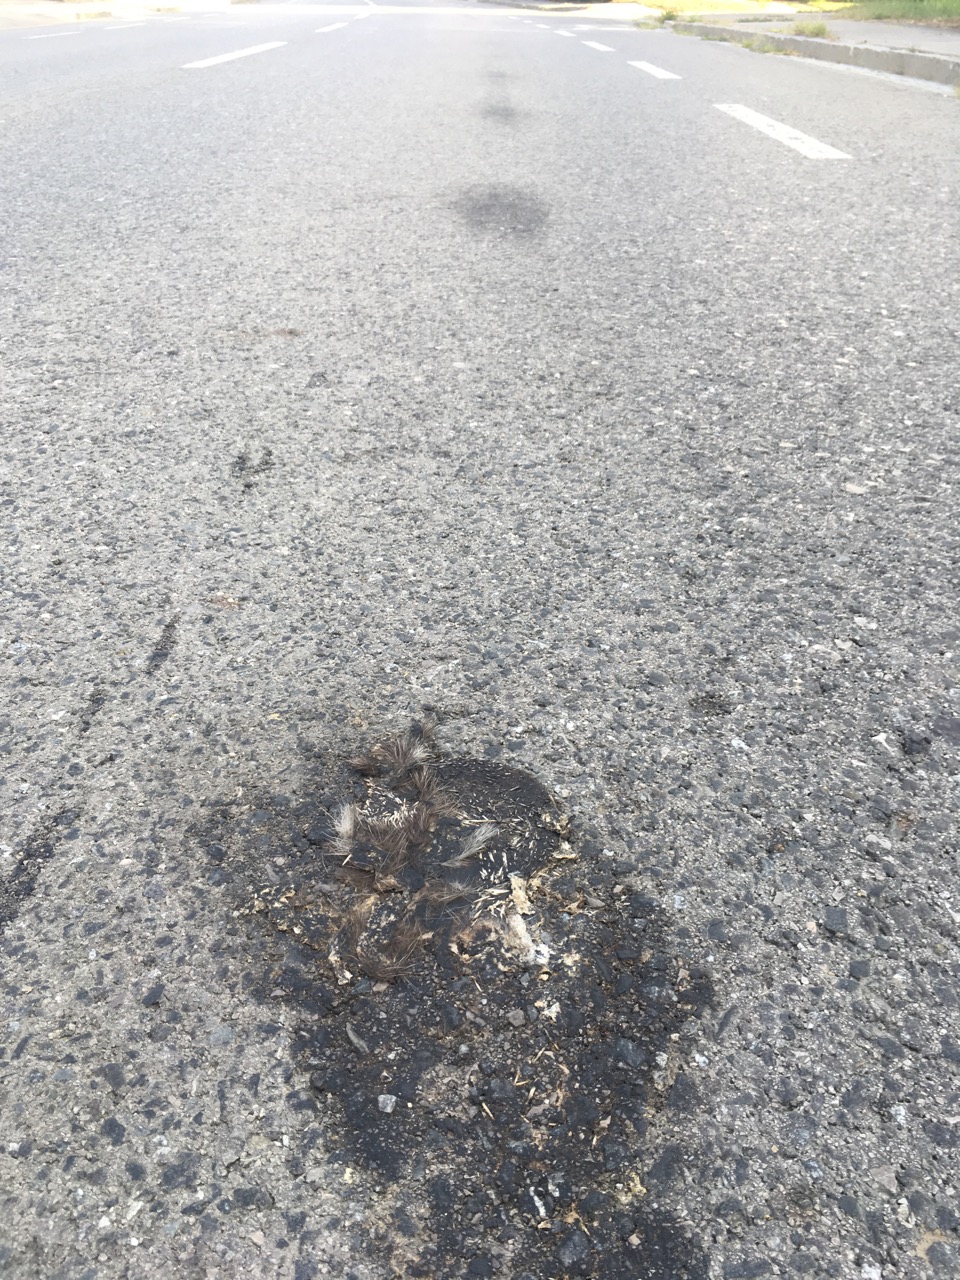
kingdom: Animalia
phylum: Chordata
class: Mammalia
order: Erinaceomorpha
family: Erinaceidae
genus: Erinaceus
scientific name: Erinaceus
